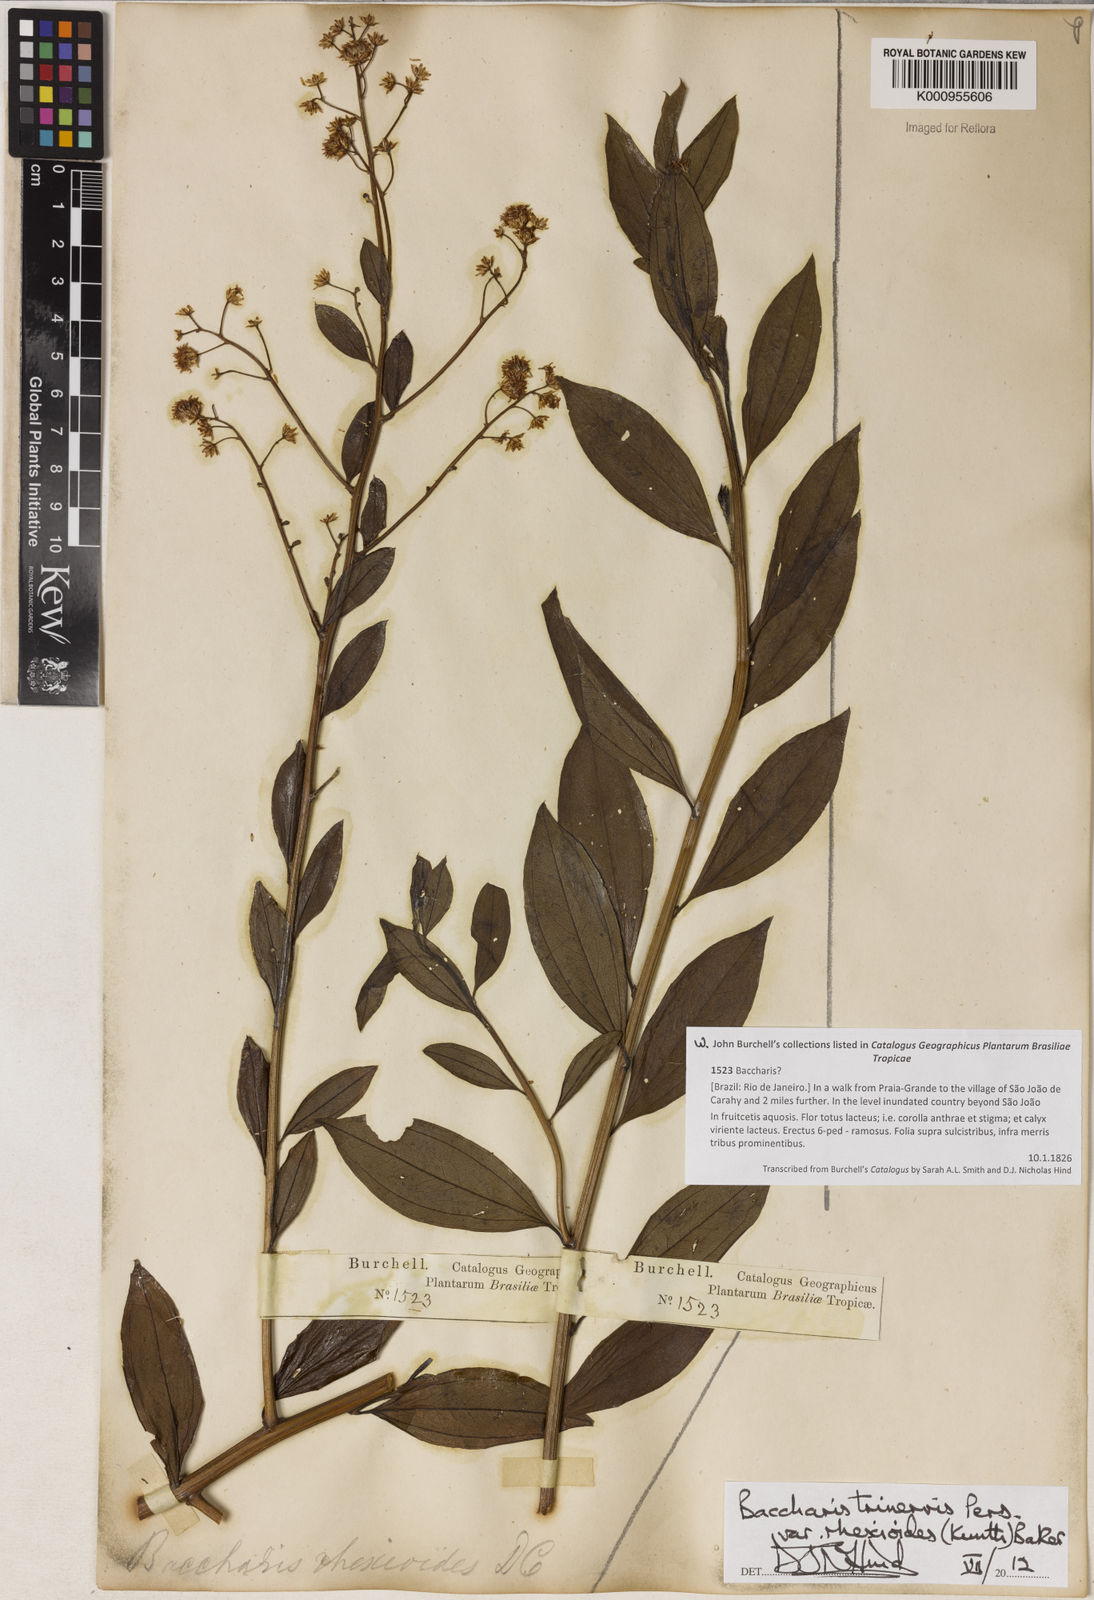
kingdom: Plantae
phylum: Tracheophyta
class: Magnoliopsida
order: Asterales
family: Asteraceae
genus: Baccharis
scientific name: Baccharis trinervis
